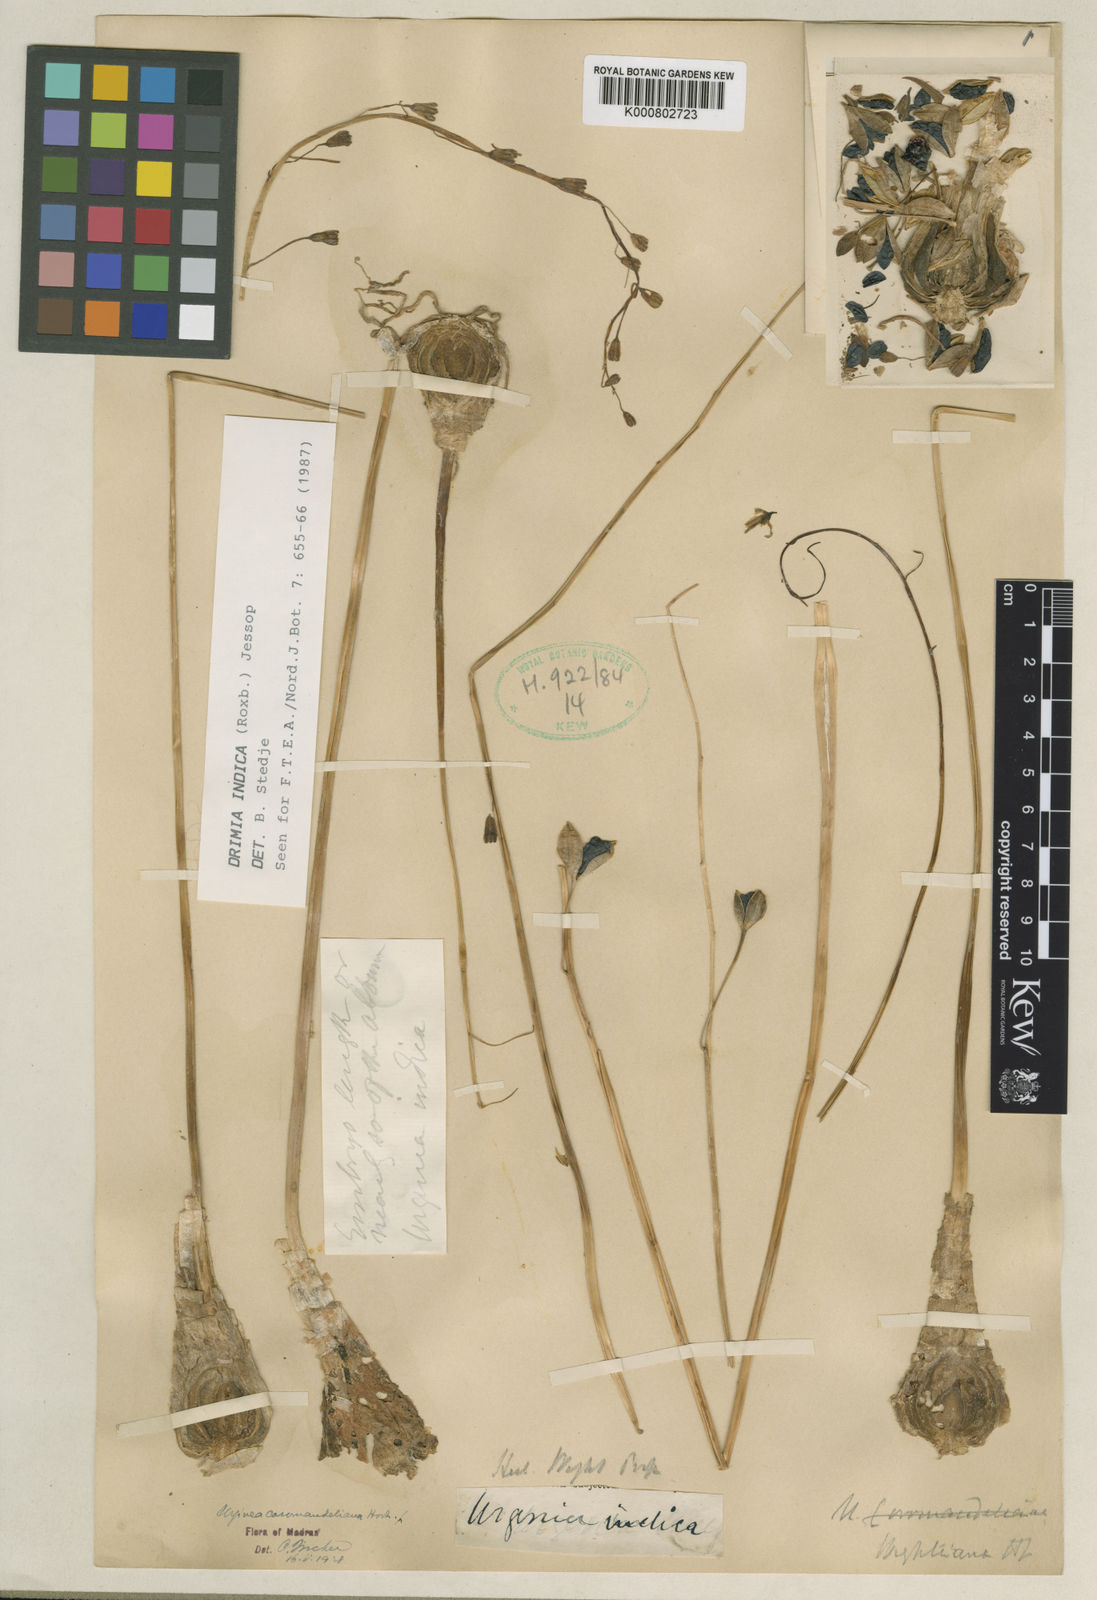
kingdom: Plantae
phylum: Tracheophyta
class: Liliopsida
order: Asparagales
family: Asparagaceae
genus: Drimia
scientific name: Drimia indica
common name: Indian-squill
